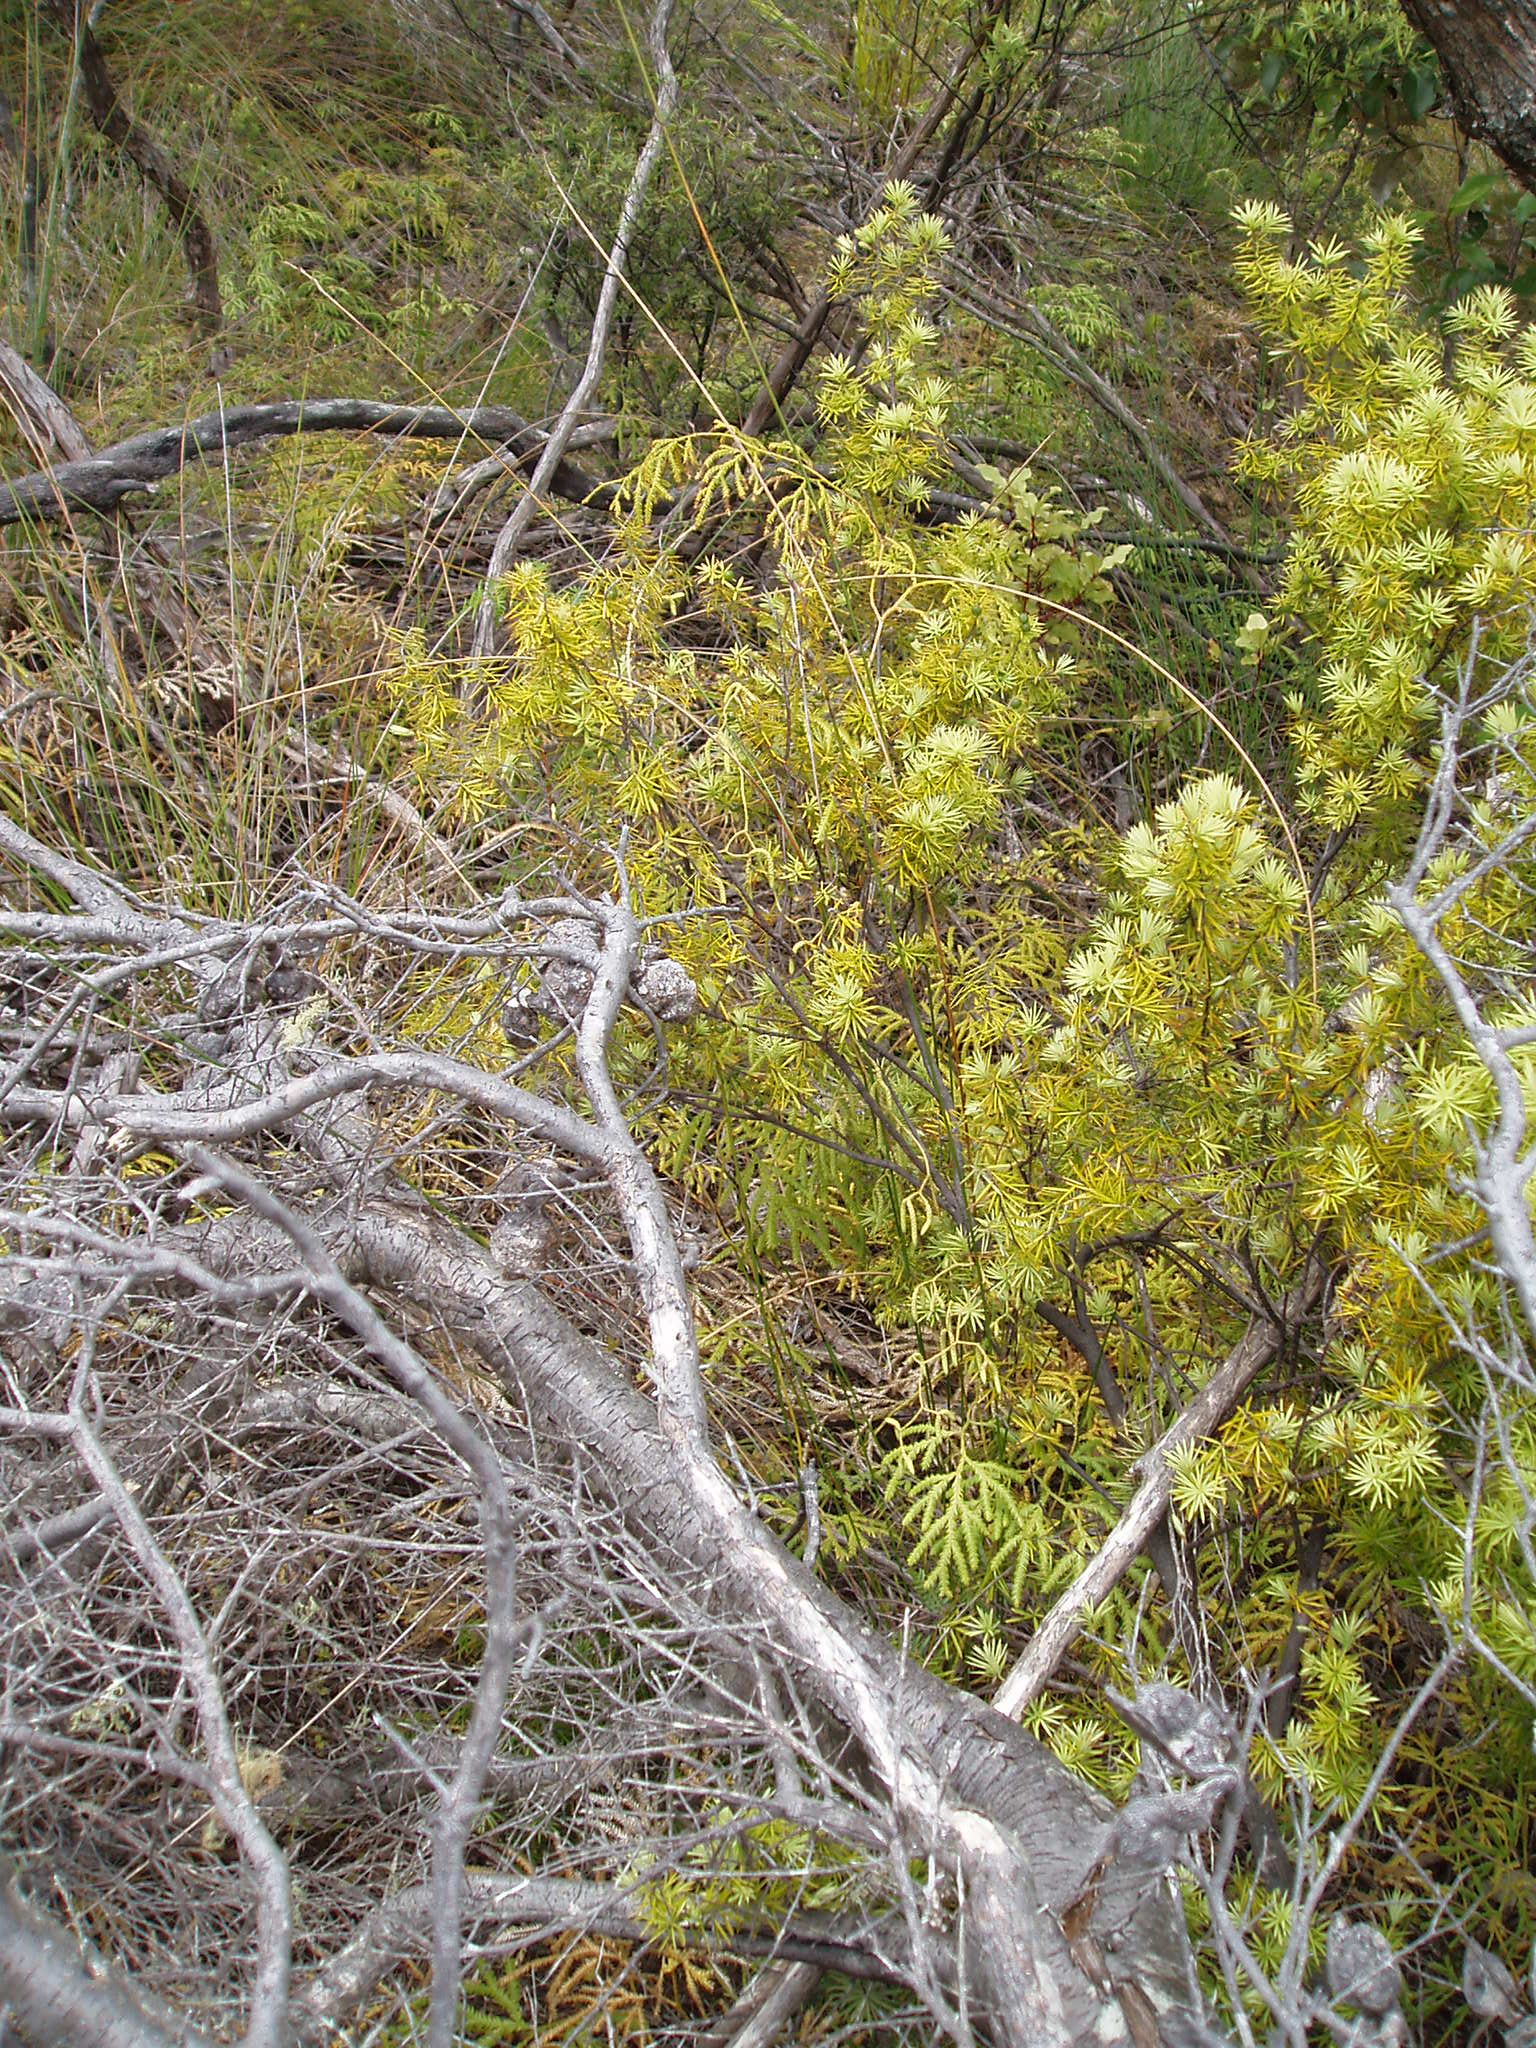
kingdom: Plantae
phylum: Tracheophyta
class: Lycopodiopsida
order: Lycopodiales
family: Lycopodiaceae
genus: Pseudodiphasium
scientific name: Pseudodiphasium volubile
